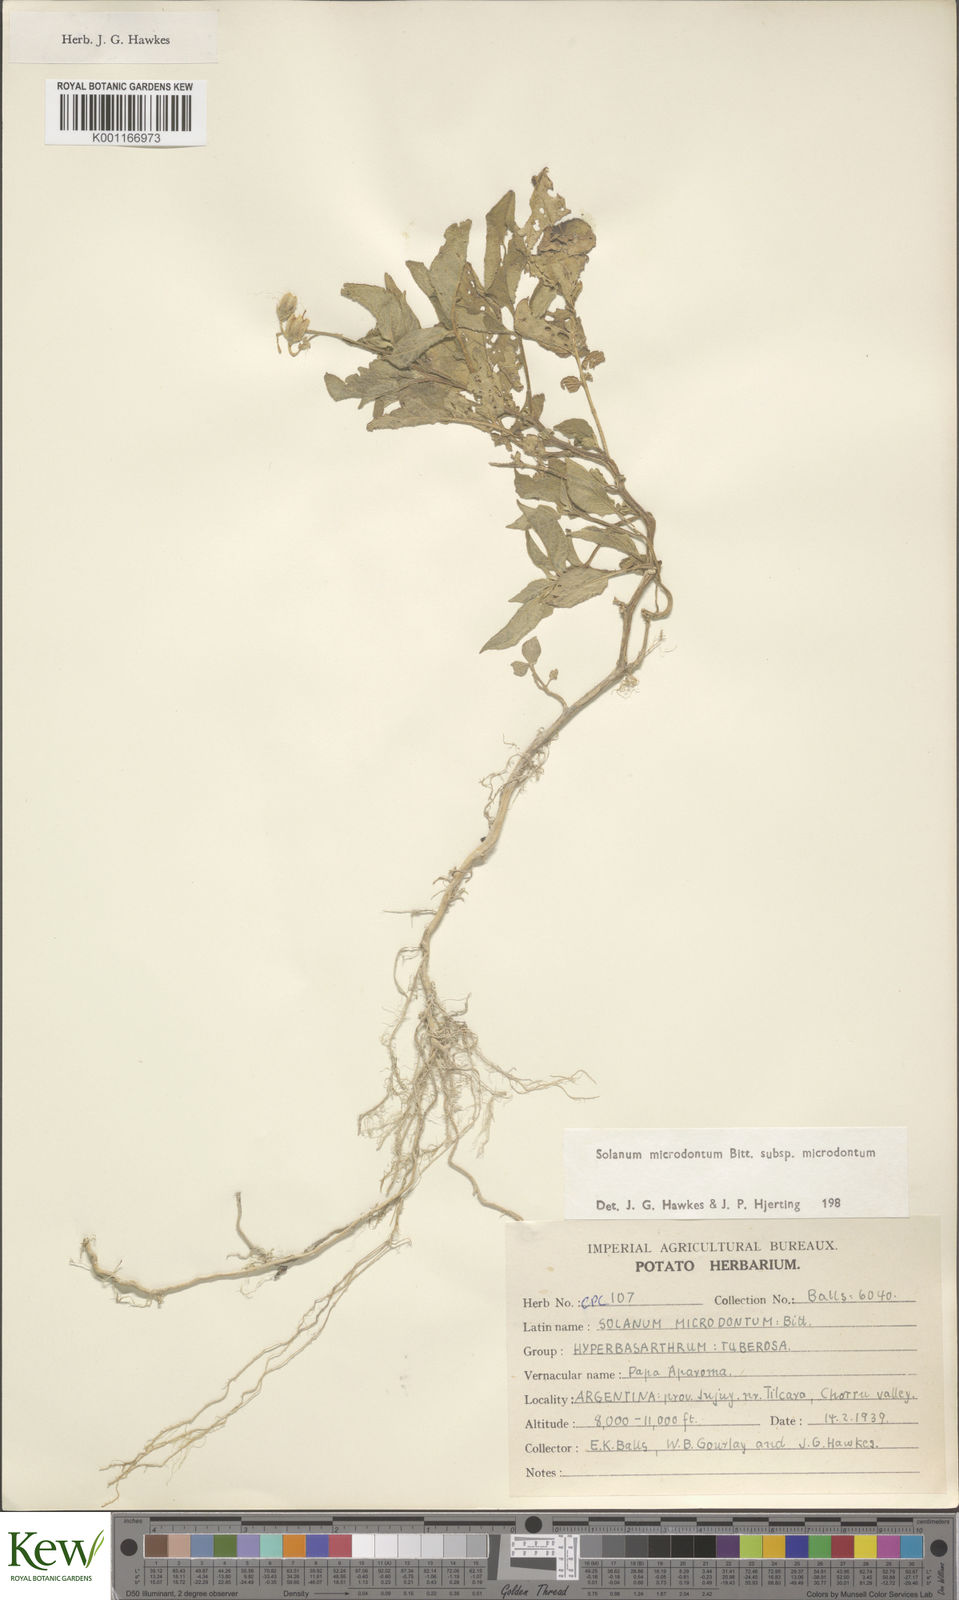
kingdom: Plantae
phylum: Tracheophyta
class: Magnoliopsida
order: Solanales
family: Solanaceae
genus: Solanum
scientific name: Solanum microdontum
